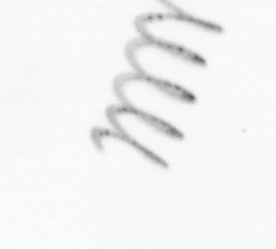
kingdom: Chromista
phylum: Ochrophyta
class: Bacillariophyceae
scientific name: Bacillariophyceae
